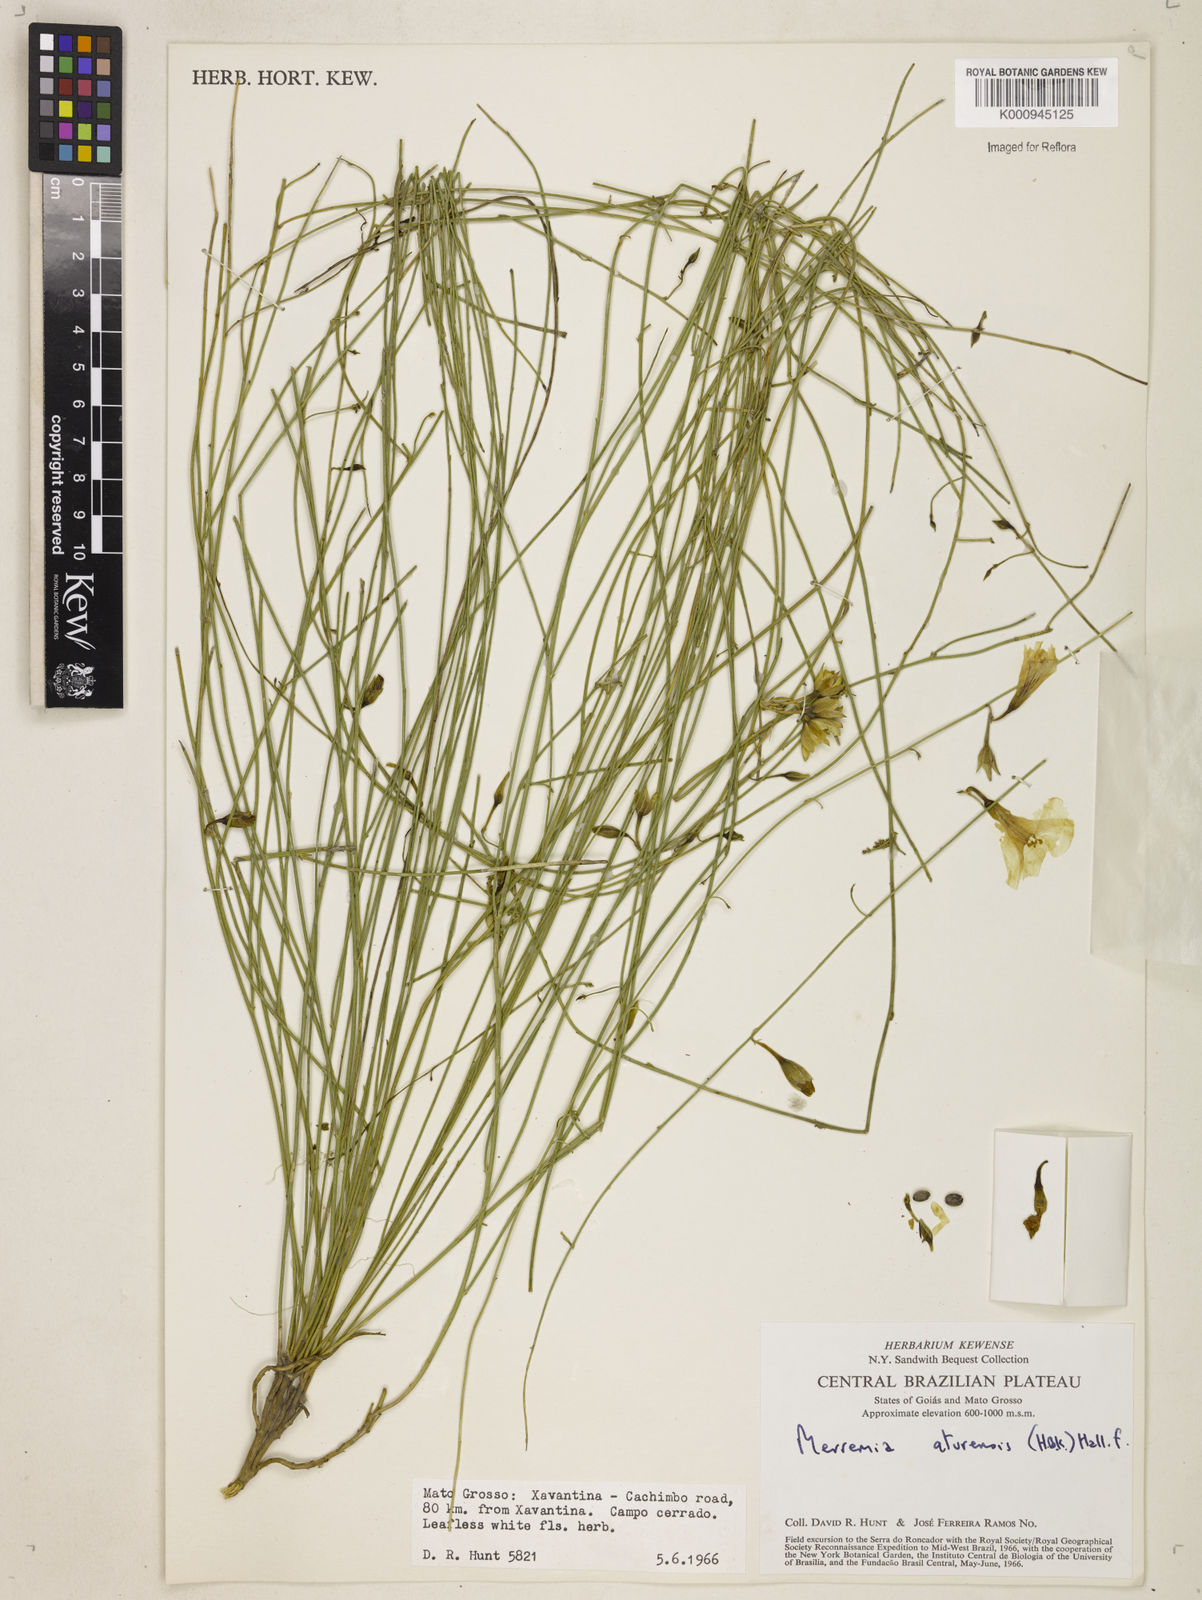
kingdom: Plantae
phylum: Tracheophyta
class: Magnoliopsida
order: Solanales
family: Convolvulaceae
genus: Distimake
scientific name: Distimake aturensis
